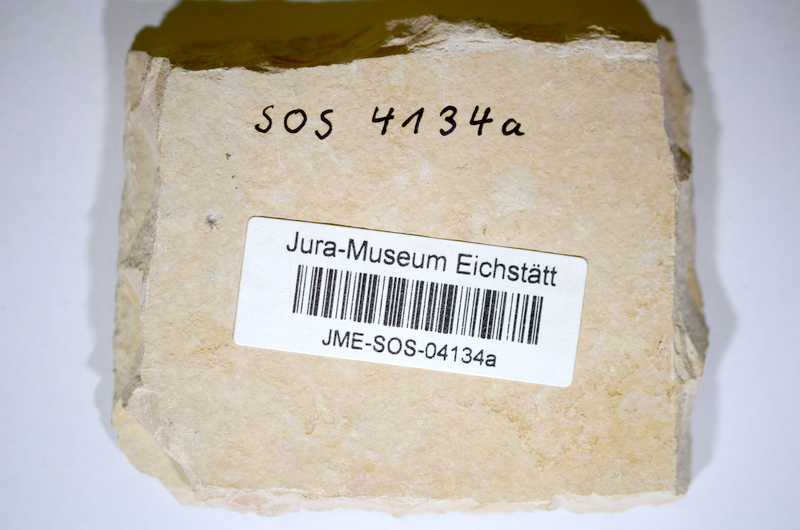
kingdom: Animalia
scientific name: Animalia
